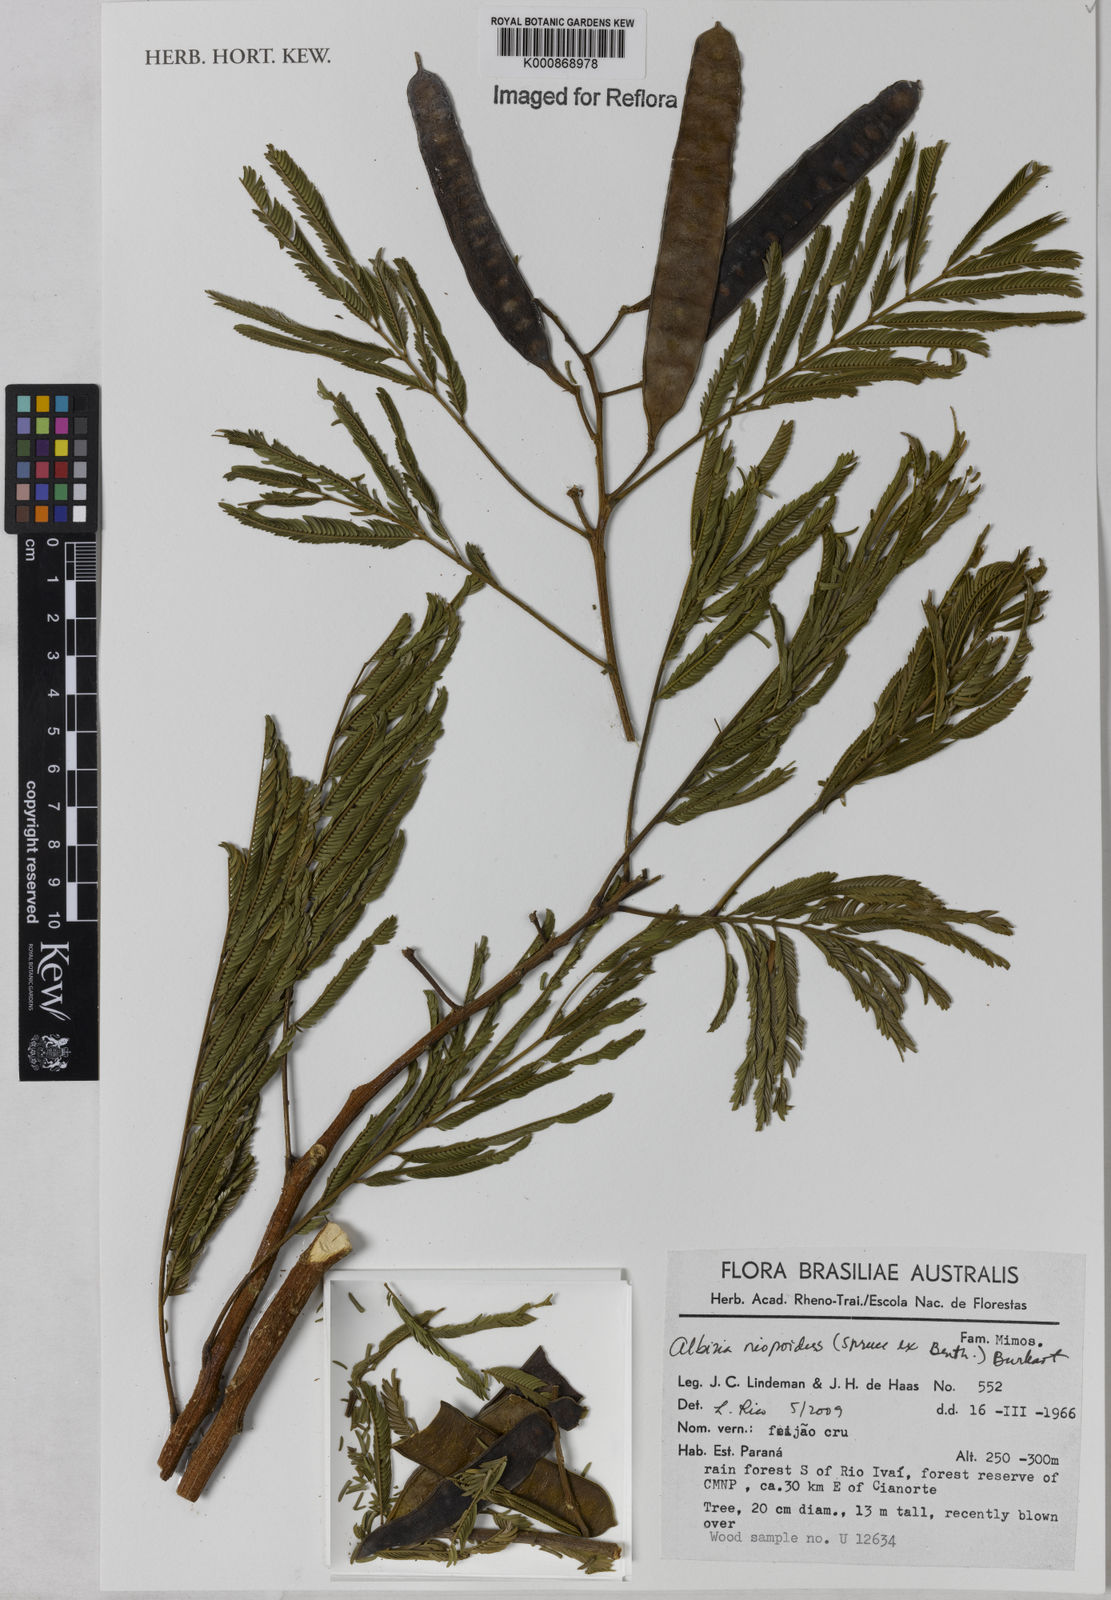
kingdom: Plantae
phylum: Tracheophyta
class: Magnoliopsida
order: Fabales
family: Fabaceae
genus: Albizia
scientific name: Albizia niopoides
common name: Silk tree
